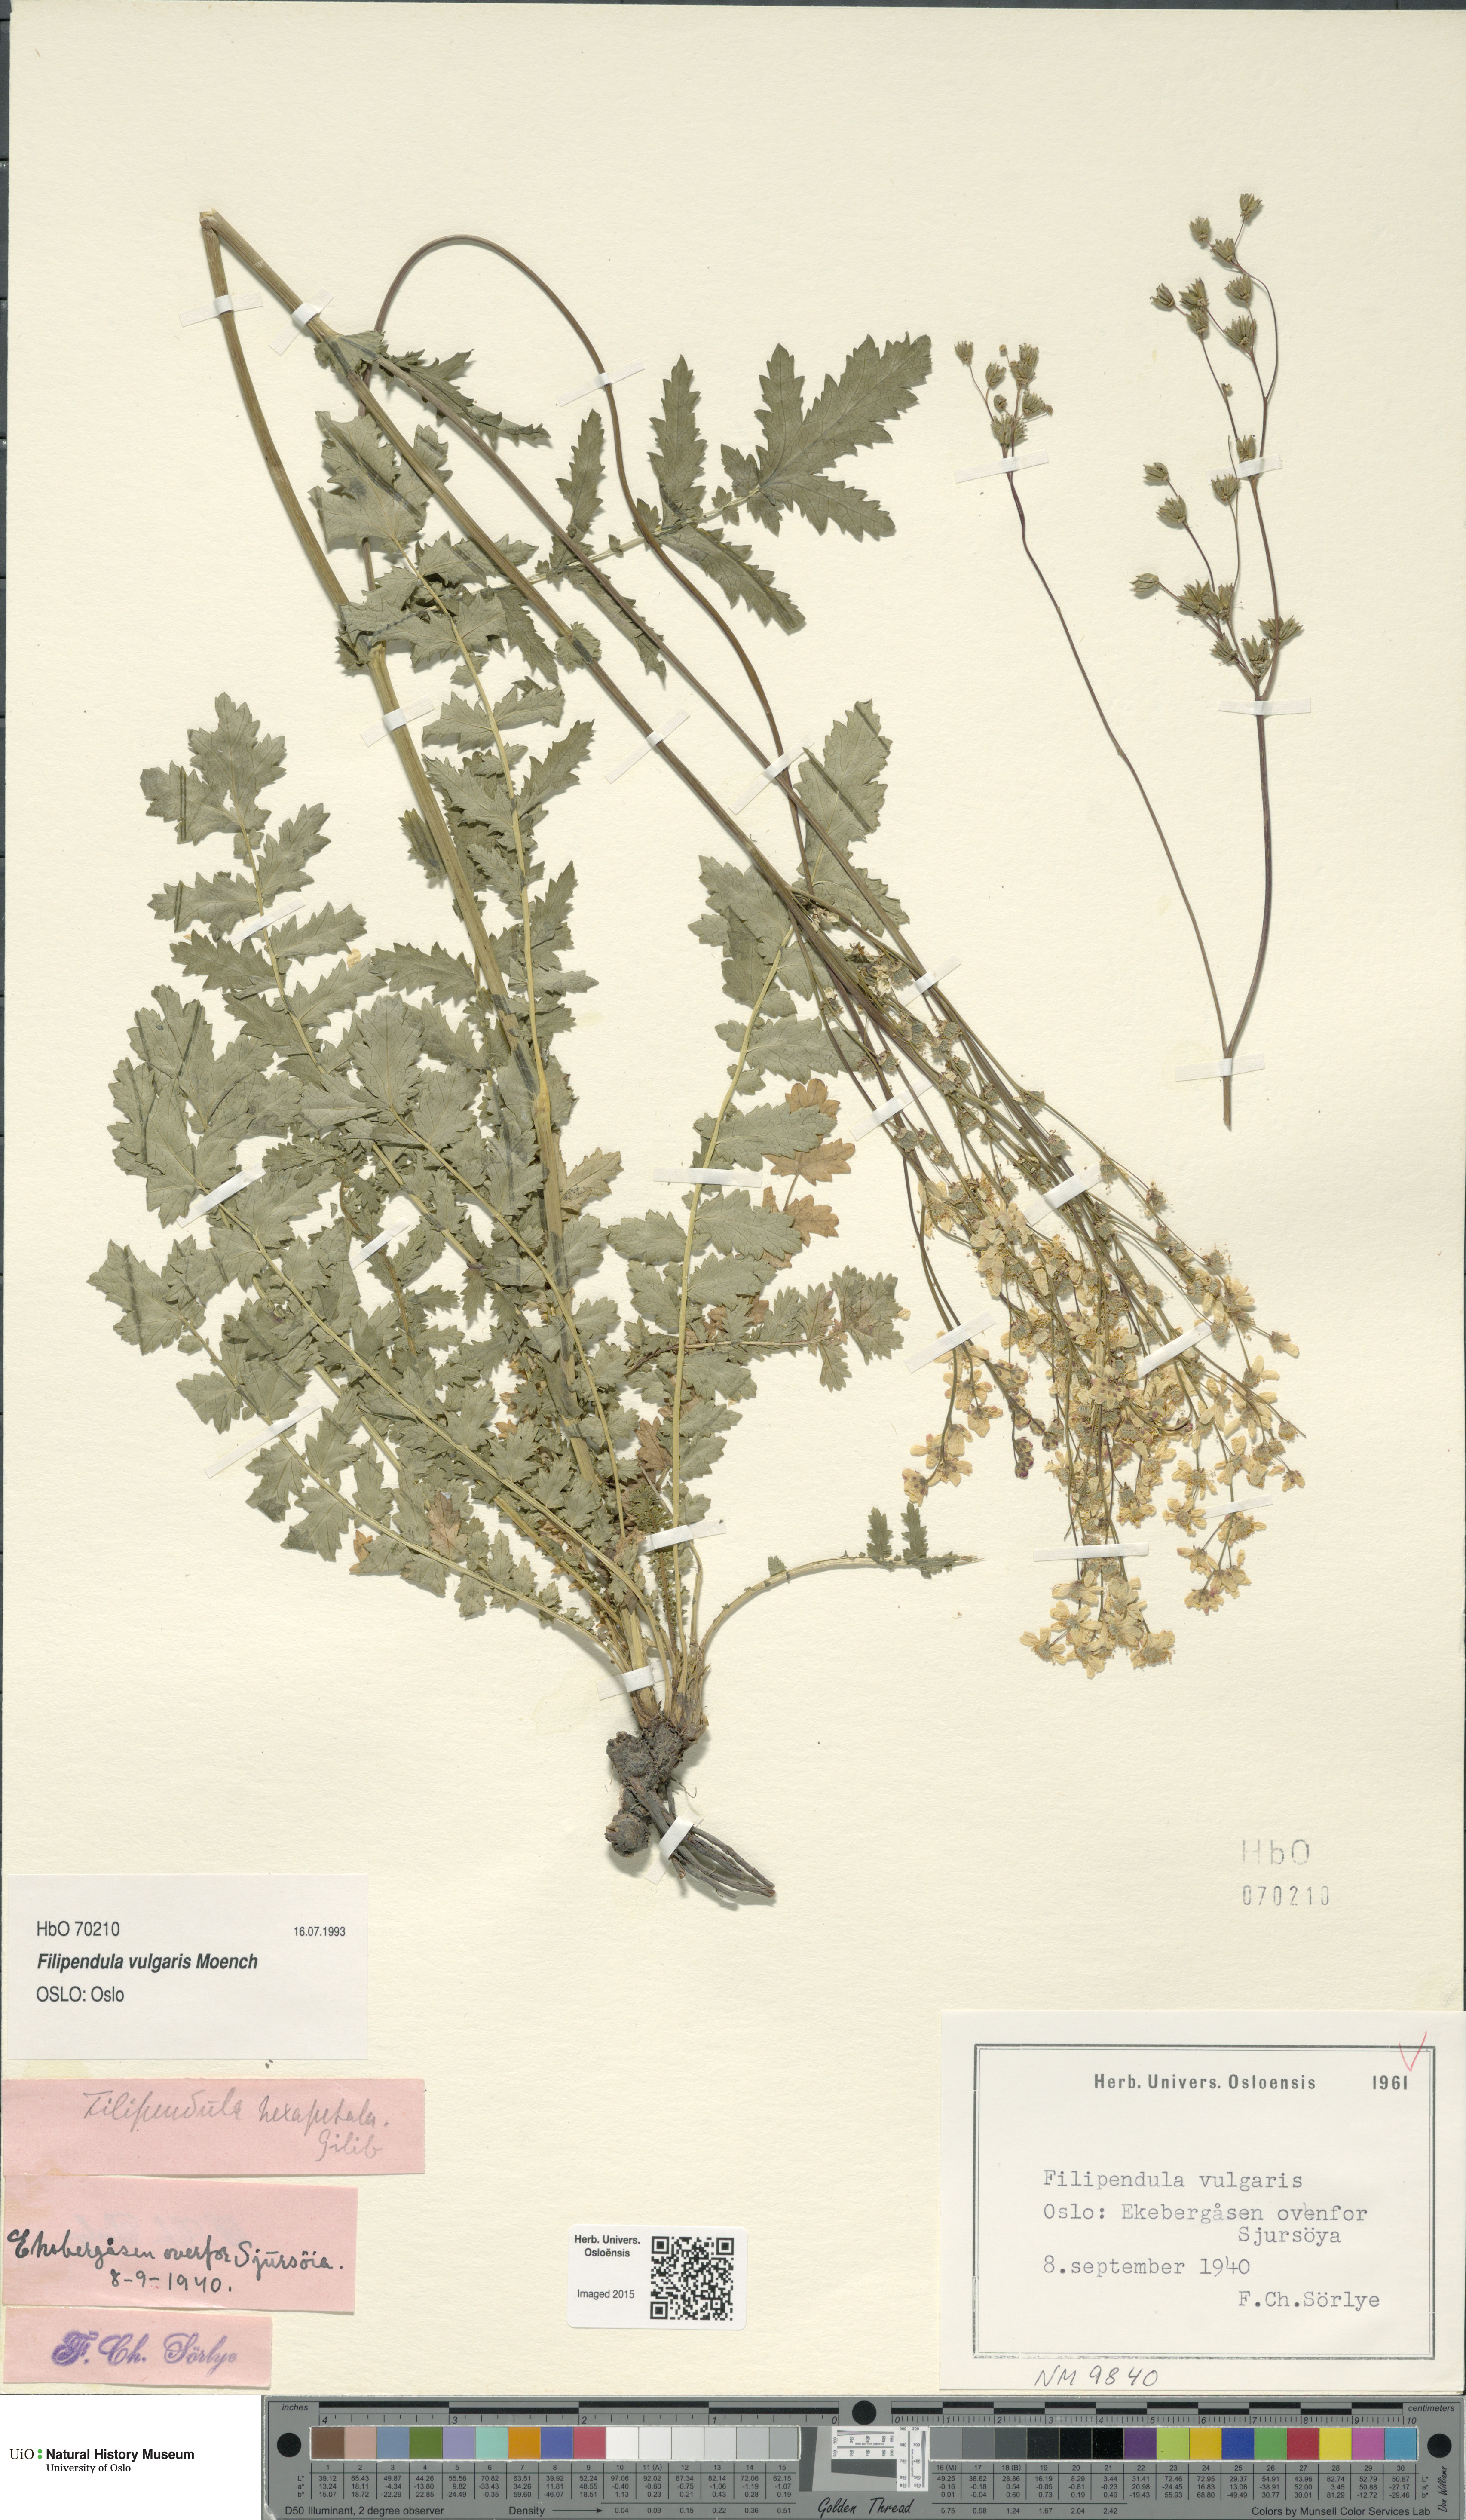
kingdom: Plantae
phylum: Tracheophyta
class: Magnoliopsida
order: Rosales
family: Rosaceae
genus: Filipendula
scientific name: Filipendula vulgaris
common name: Dropwort
